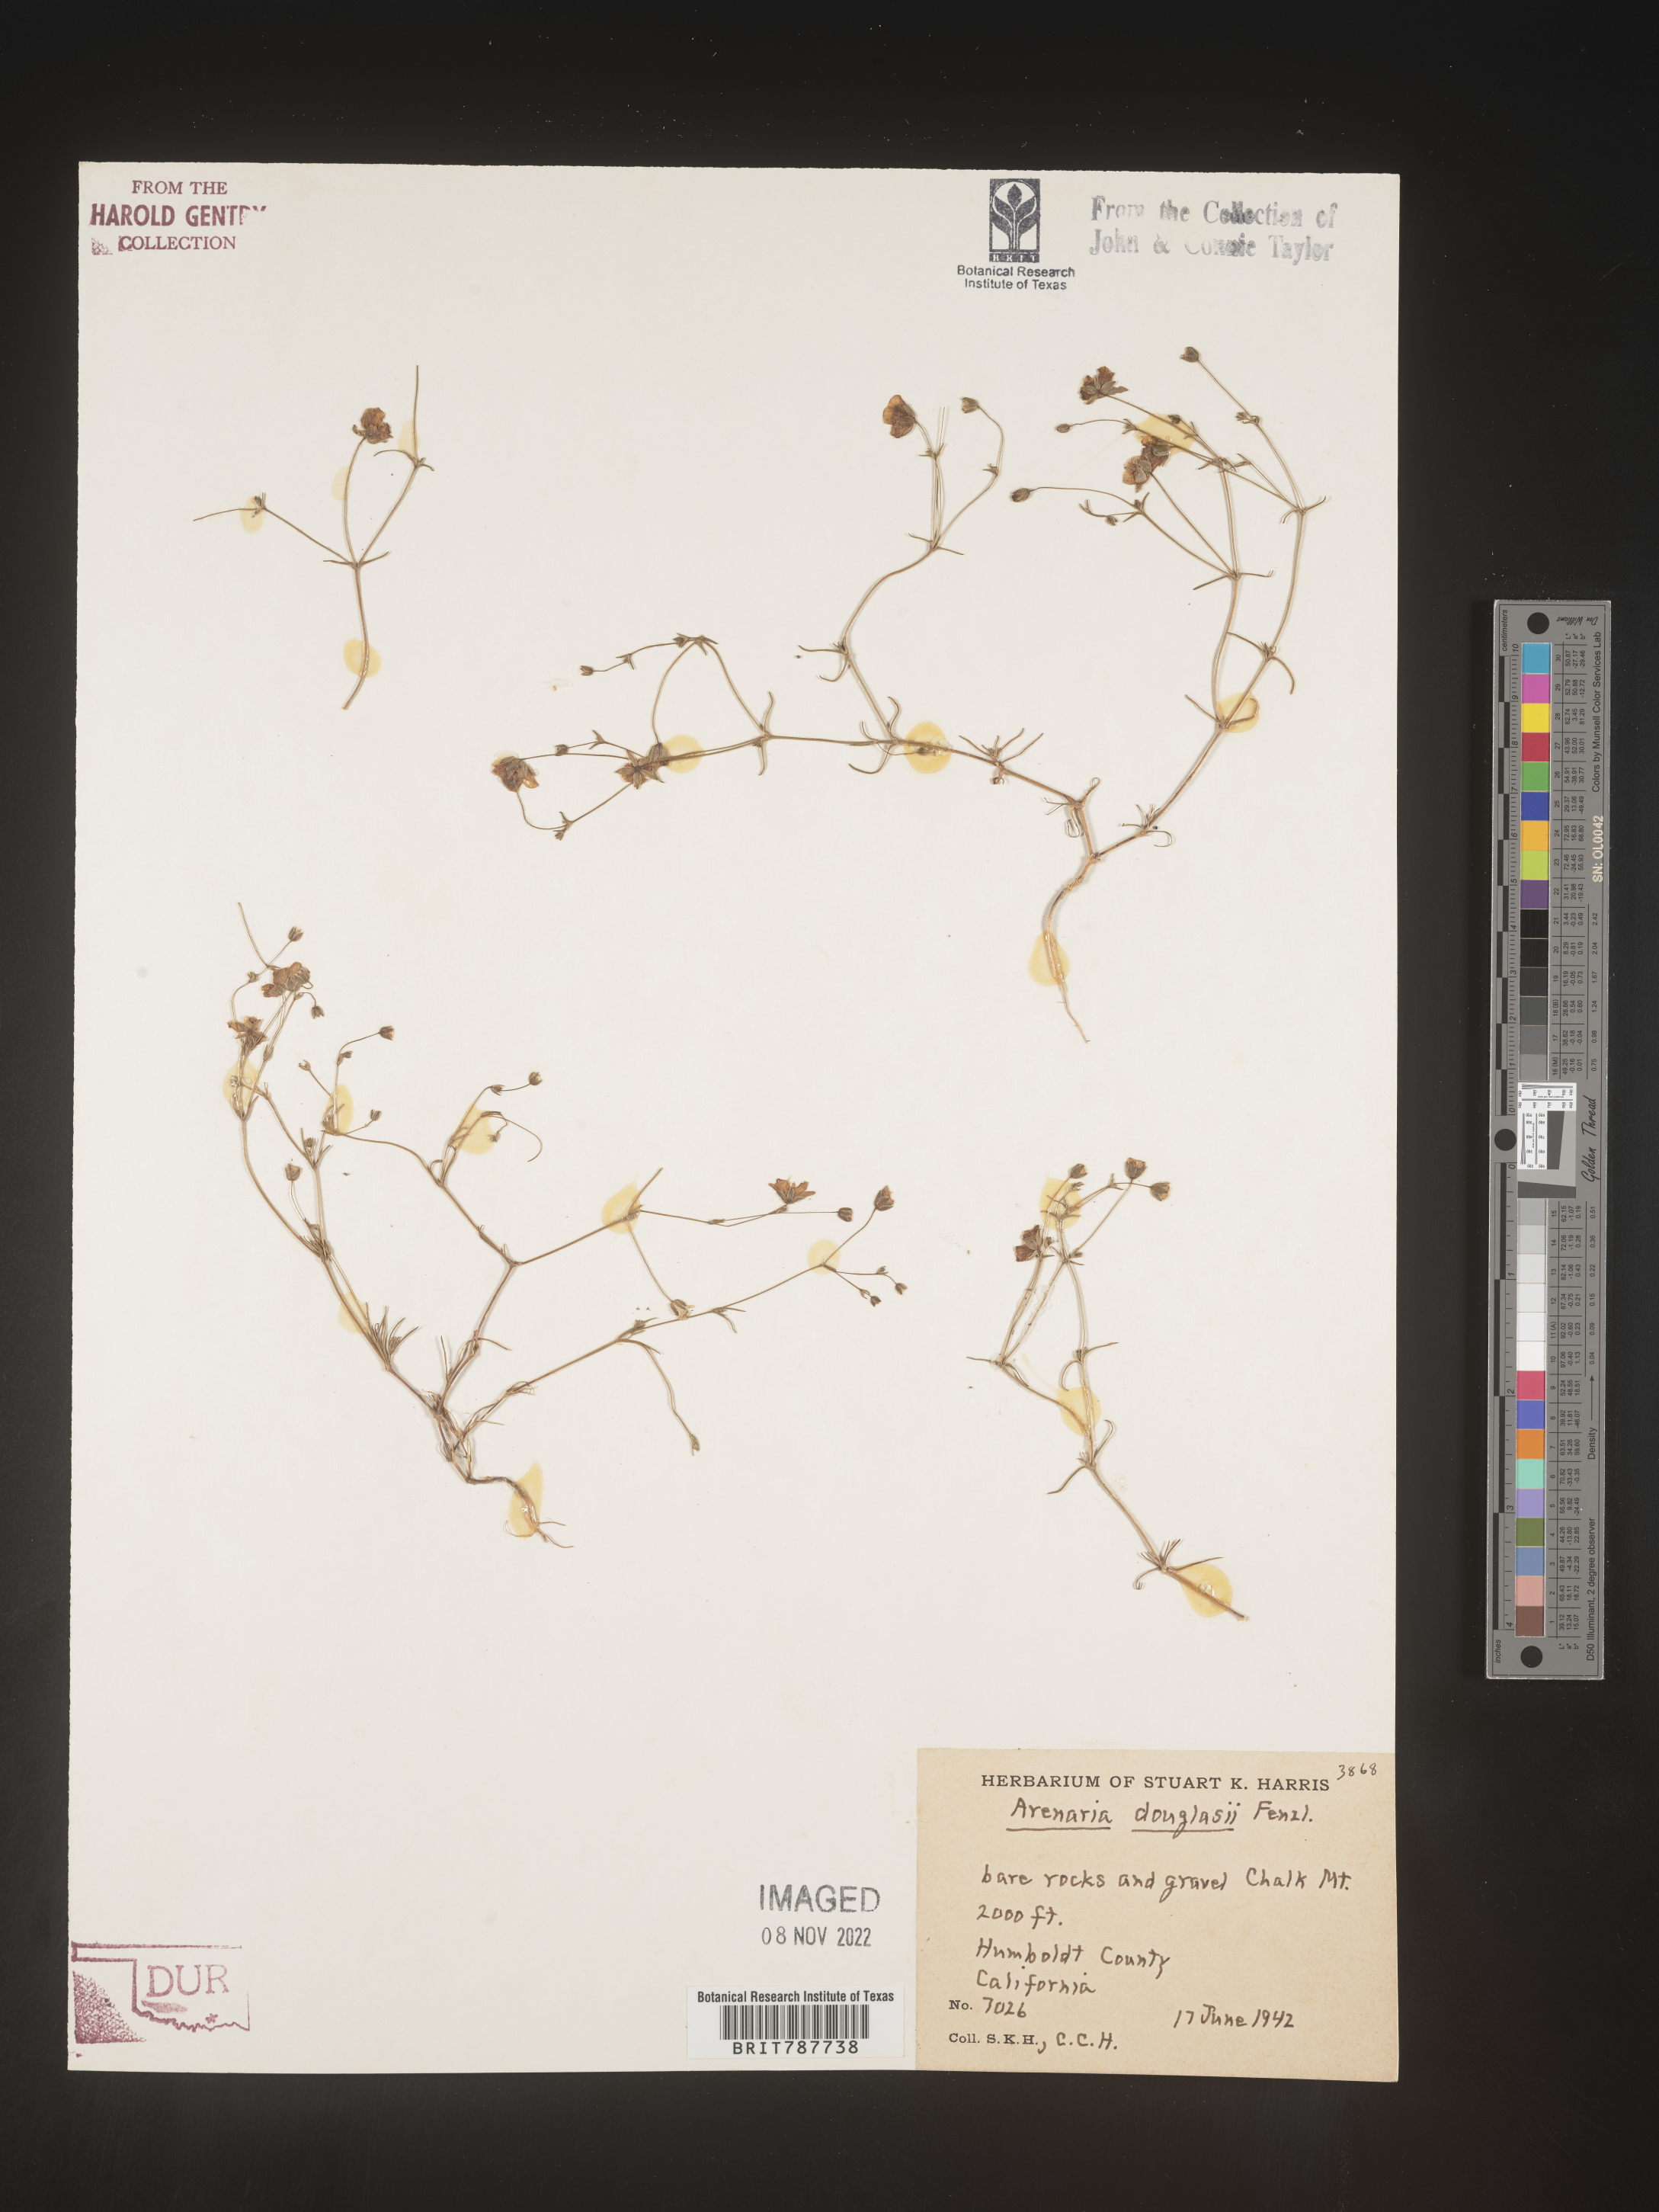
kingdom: Plantae
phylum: Tracheophyta
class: Magnoliopsida
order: Caryophyllales
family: Caryophyllaceae
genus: Arenaria
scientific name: Arenaria
